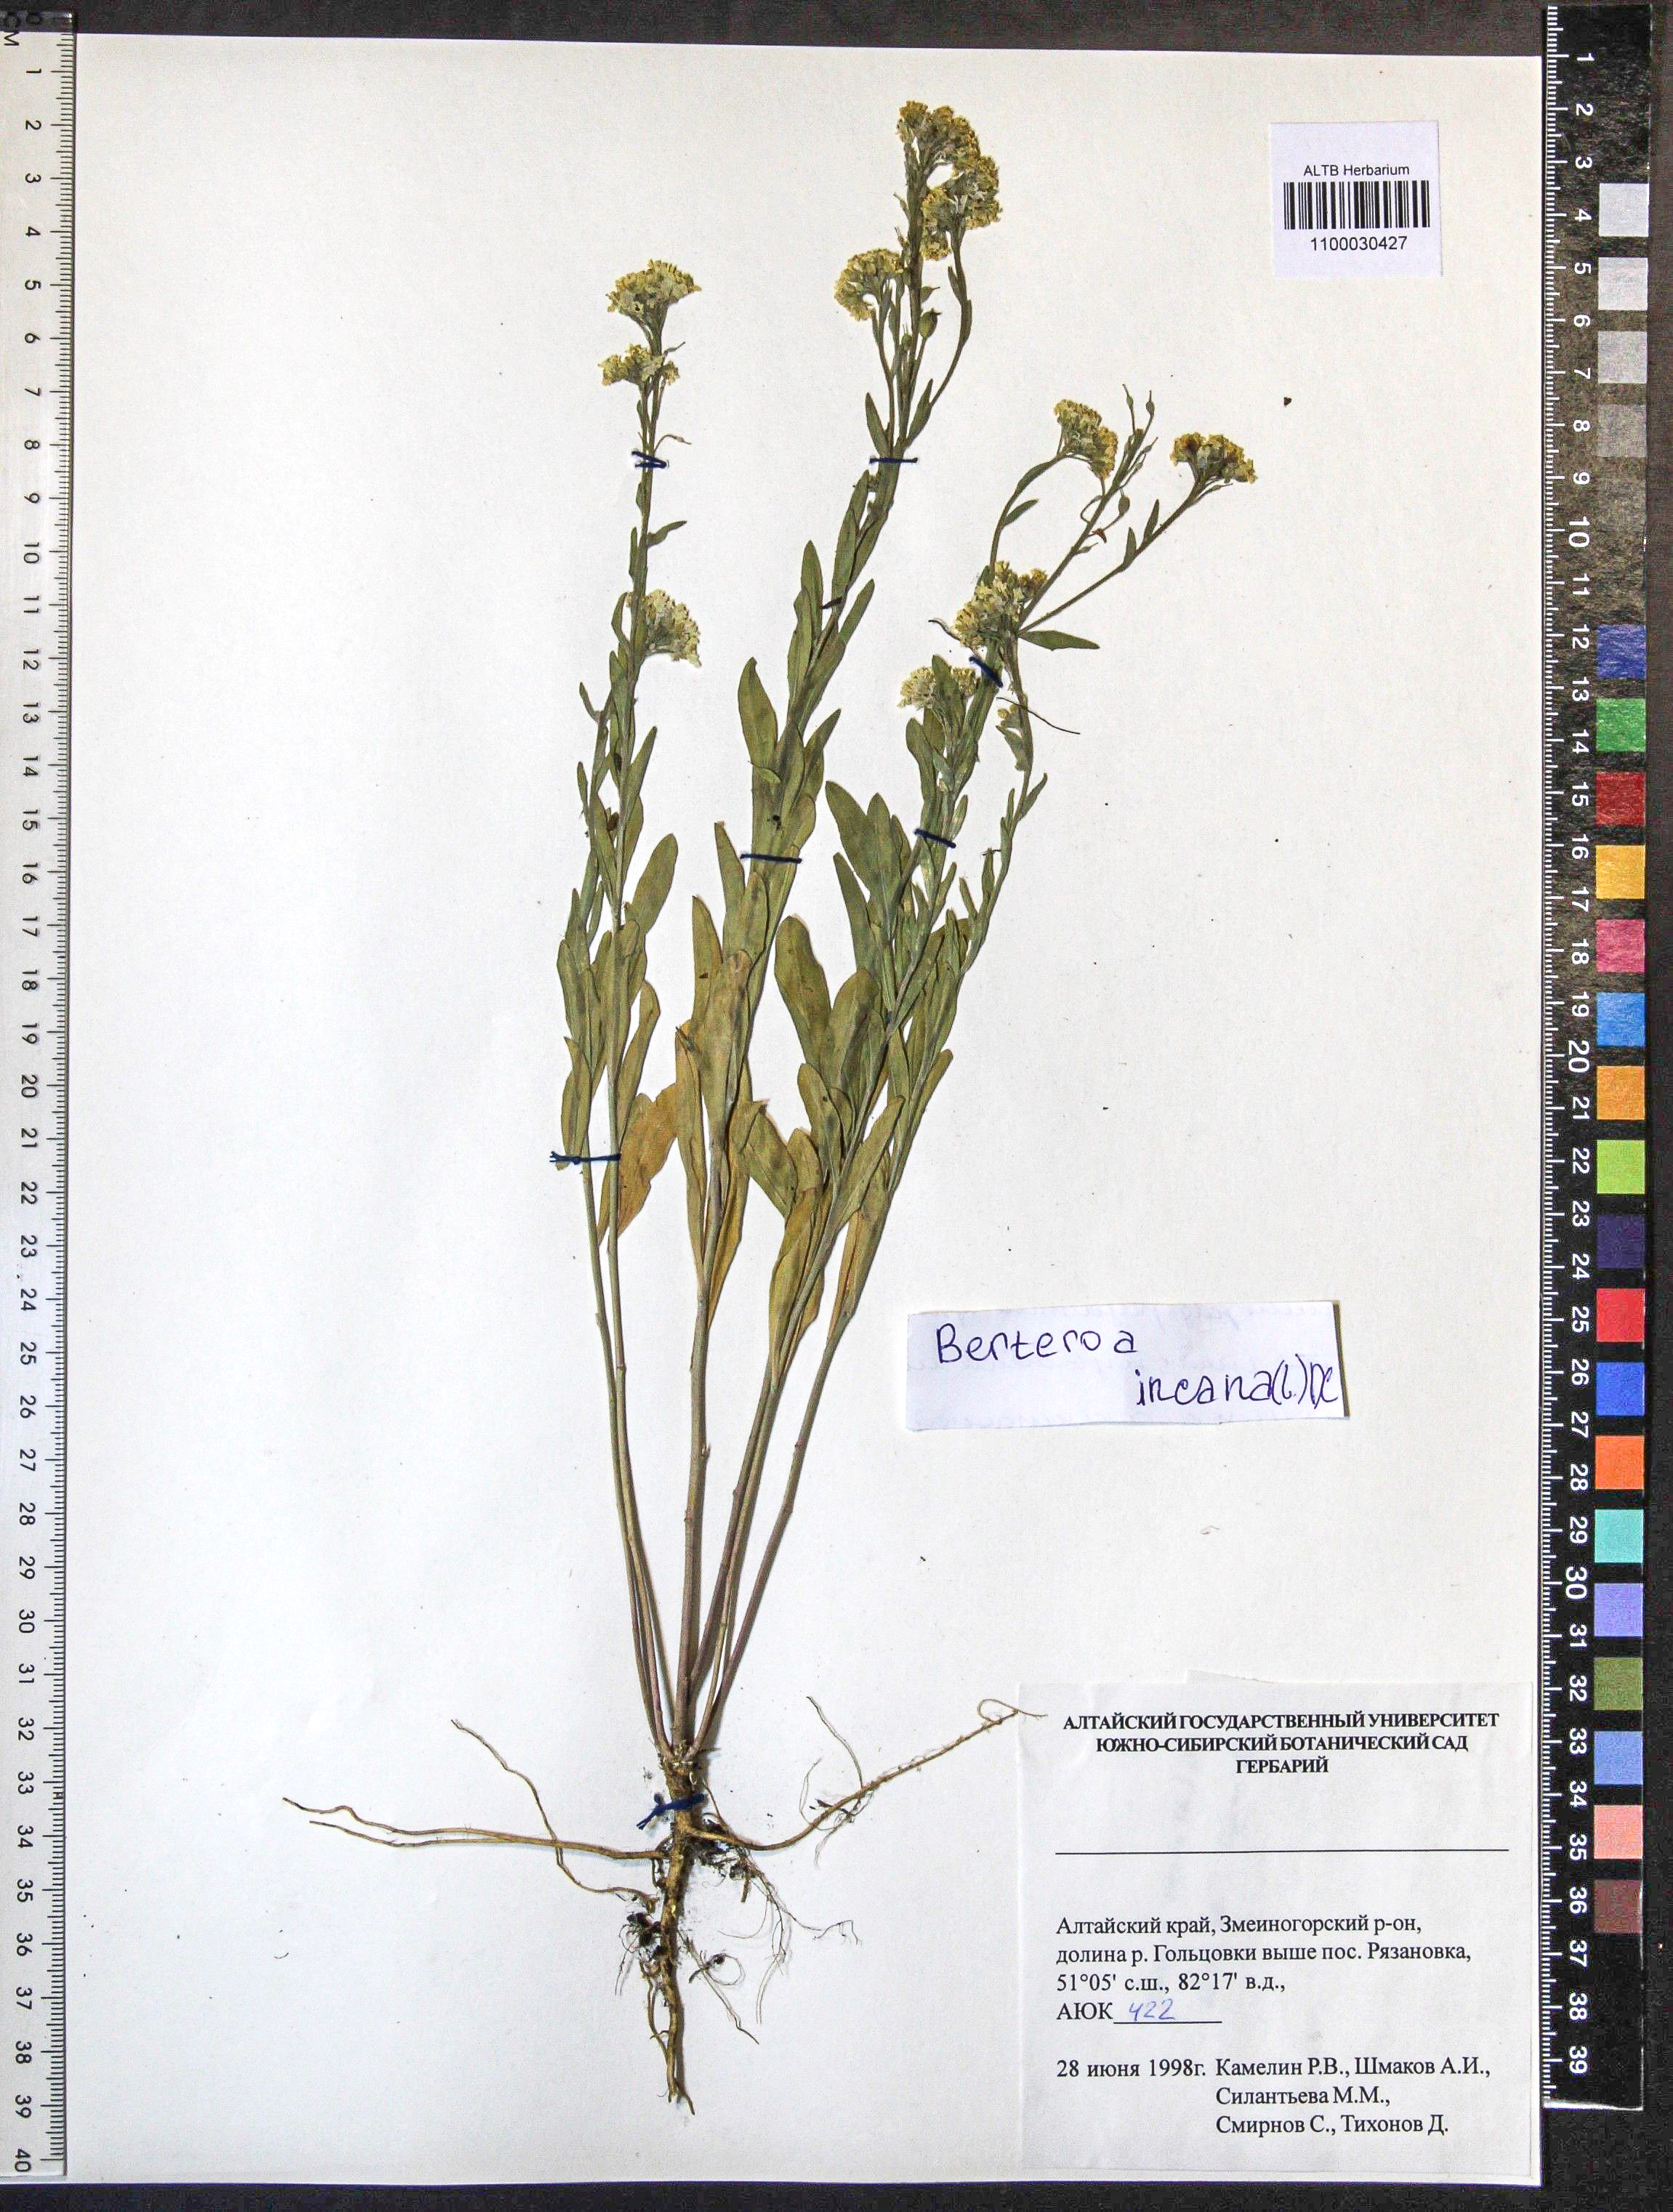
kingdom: Plantae
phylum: Tracheophyta
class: Magnoliopsida
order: Brassicales
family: Brassicaceae
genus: Berteroa
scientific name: Berteroa incana
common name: Hoary alison
